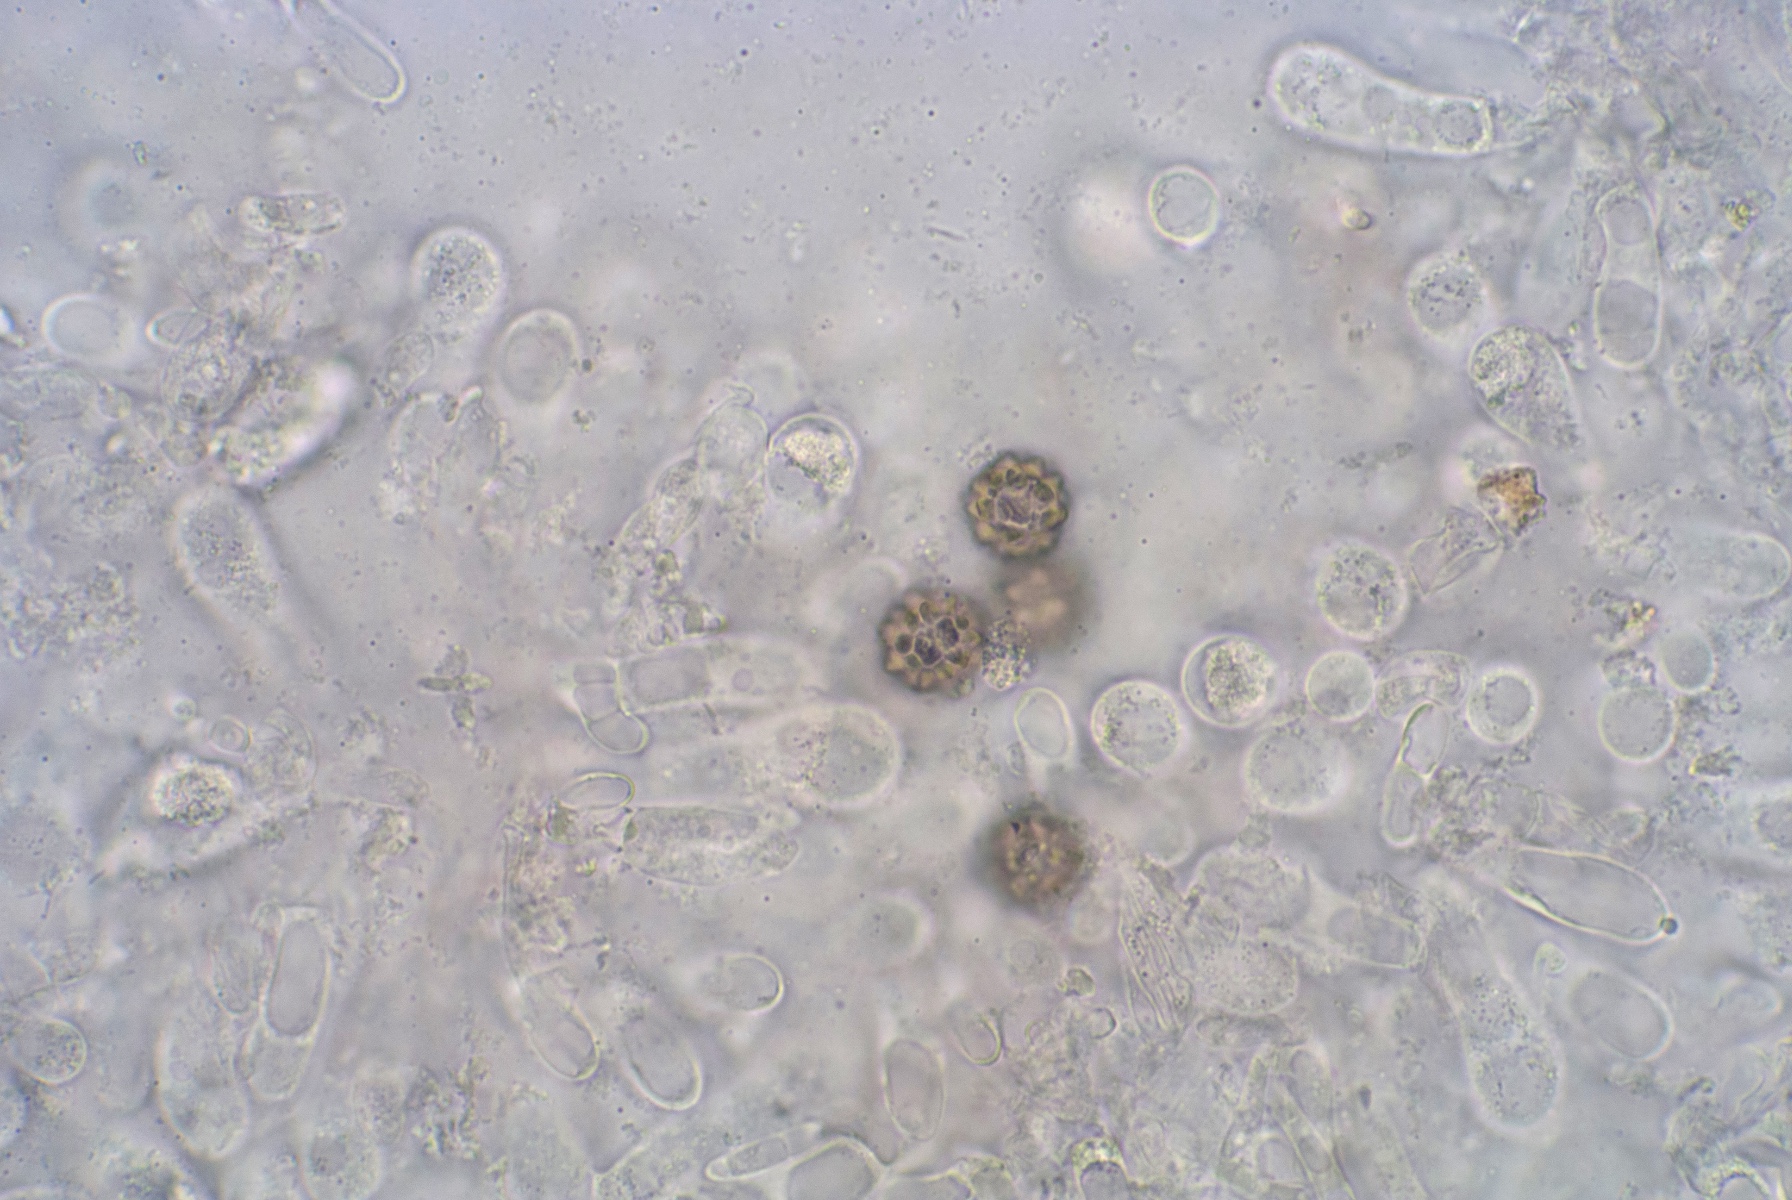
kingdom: Fungi
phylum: Basidiomycota
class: Agaricomycetes
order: Boletales
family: Boletaceae
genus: Octaviania
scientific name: Octaviania
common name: løvtrøffel
